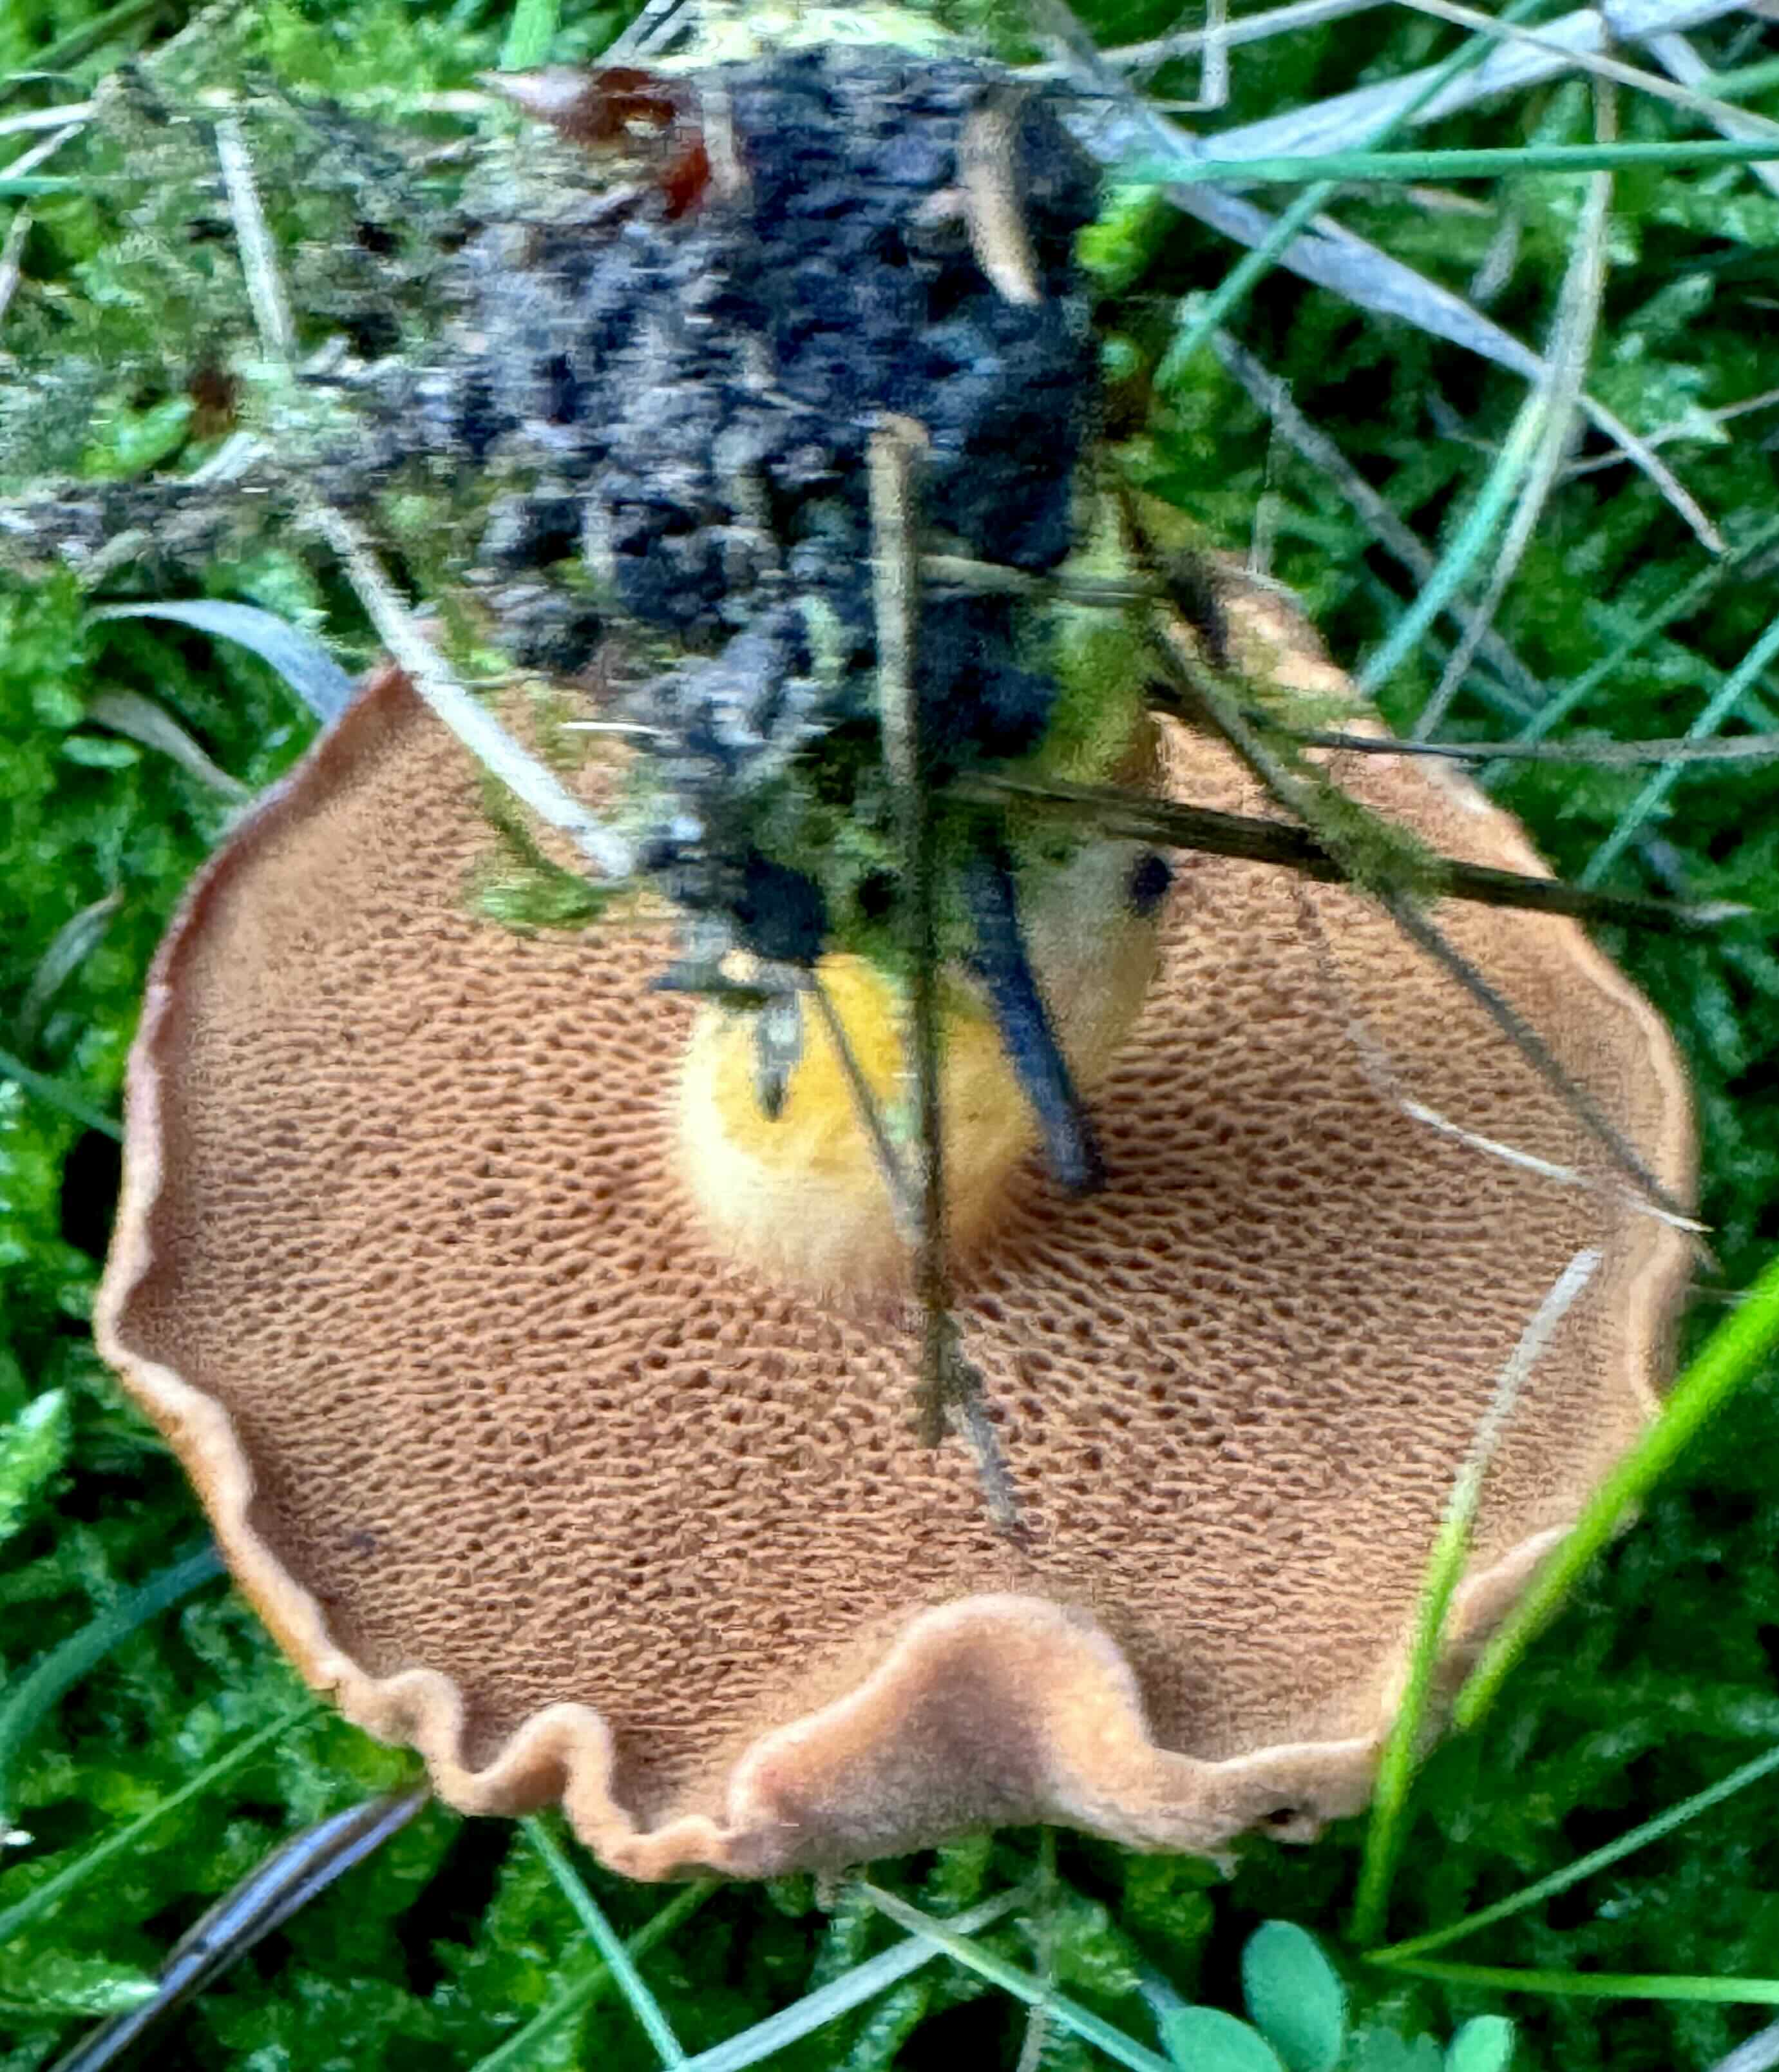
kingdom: Fungi
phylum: Basidiomycota
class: Agaricomycetes
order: Boletales
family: Boletaceae
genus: Chalciporus
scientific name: Chalciporus piperatus
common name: peberrørhat
